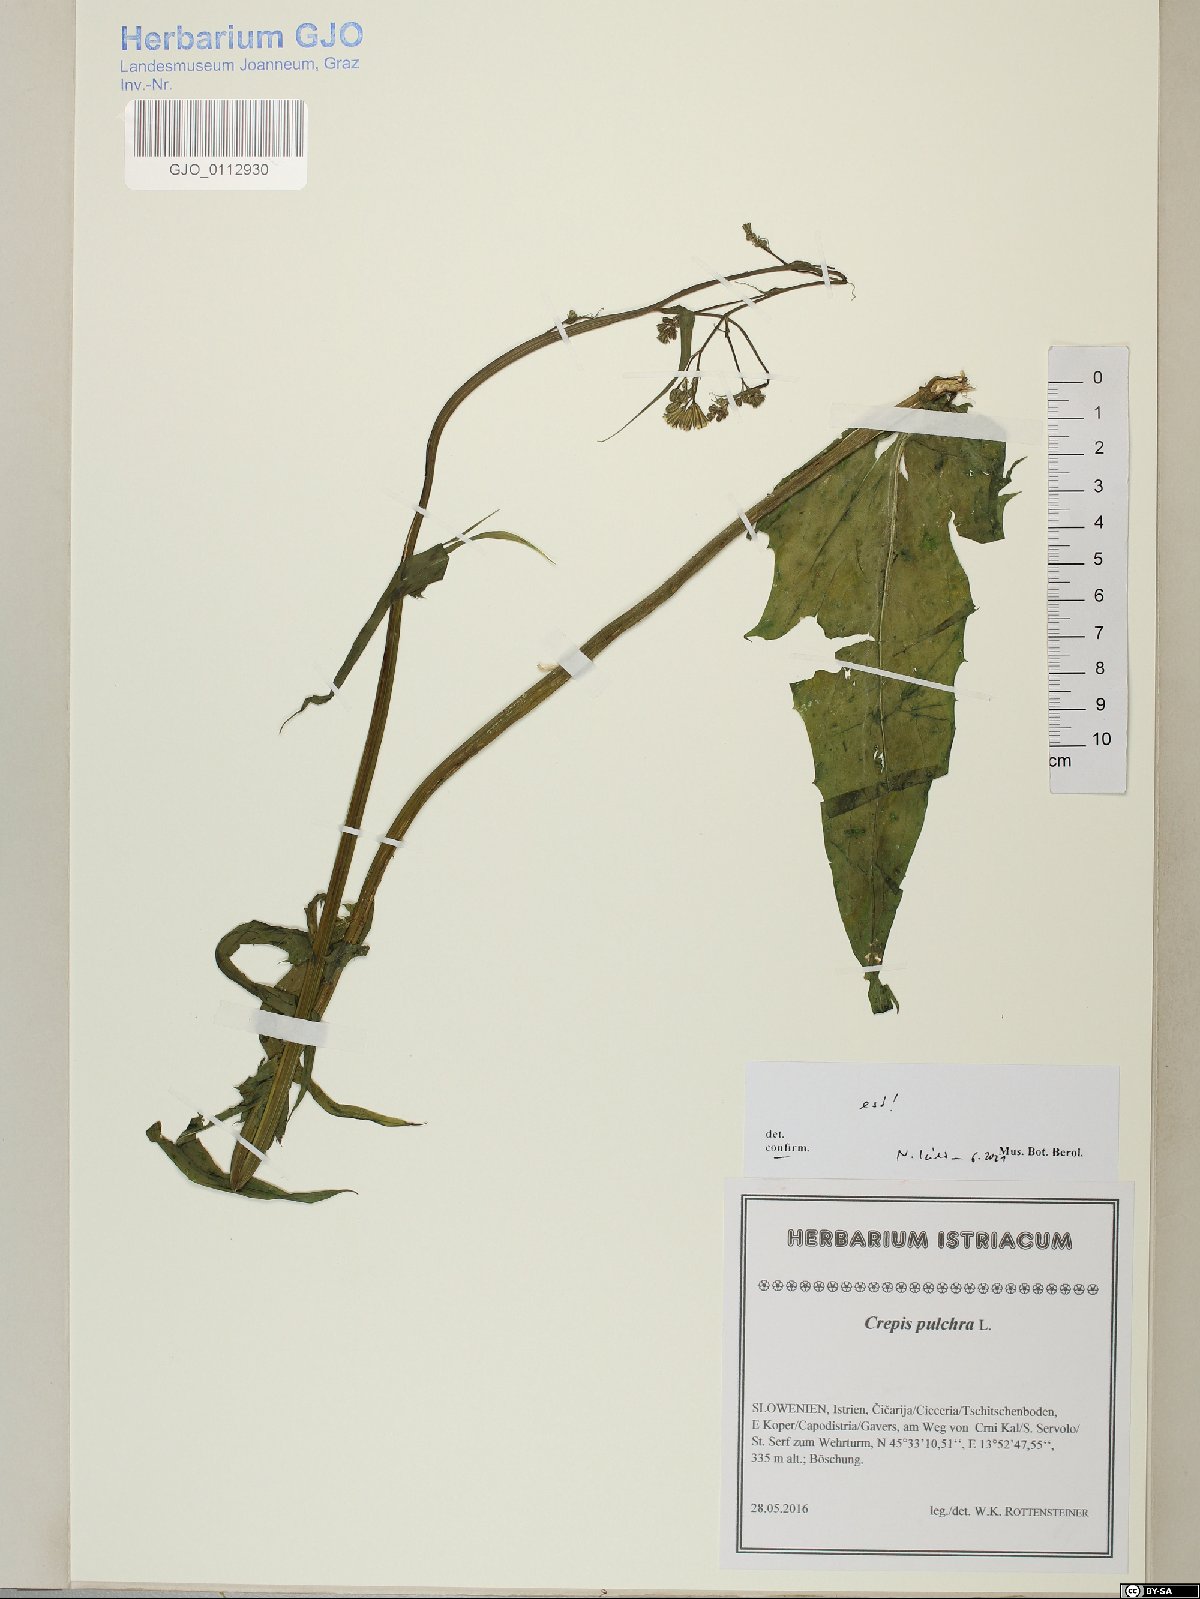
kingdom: Plantae
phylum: Tracheophyta
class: Magnoliopsida
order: Asterales
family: Asteraceae
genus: Crepis
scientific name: Crepis pulchra
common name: Hawk's-beard
